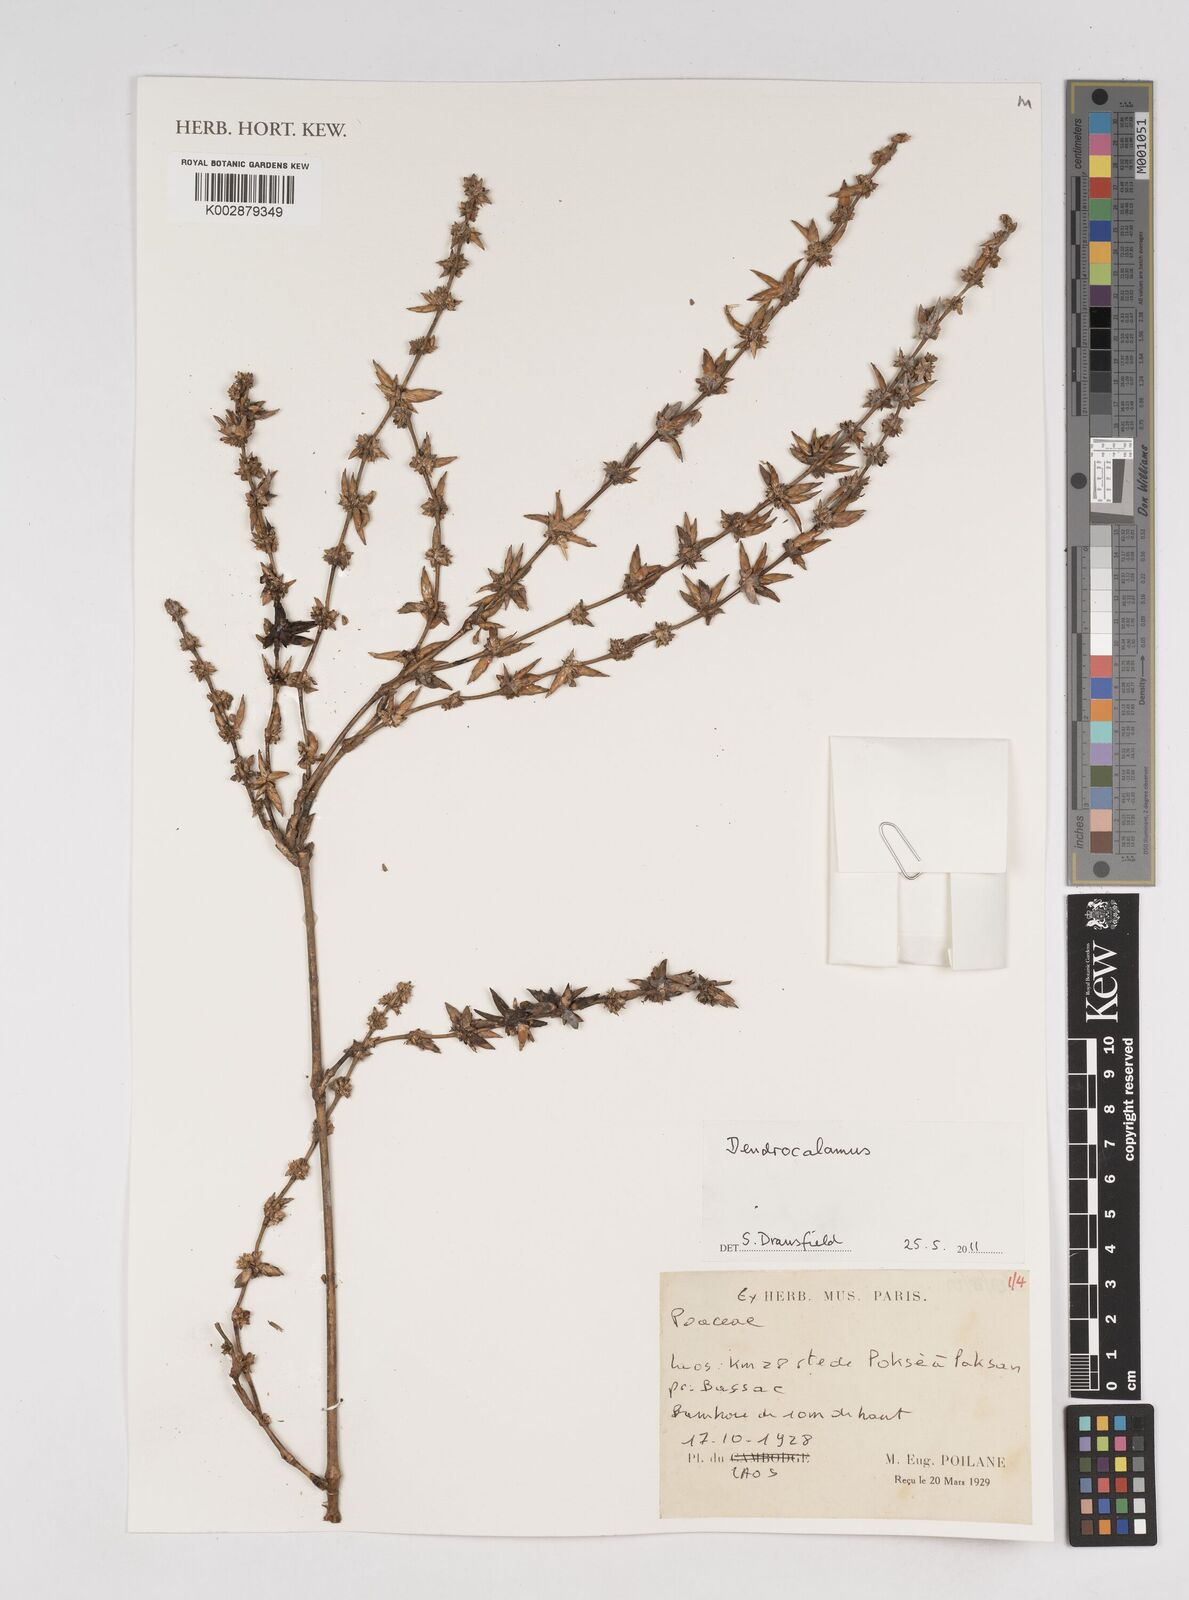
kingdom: Plantae
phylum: Tracheophyta
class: Liliopsida
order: Poales
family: Poaceae
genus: Dendrocalamus
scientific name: Dendrocalamus
